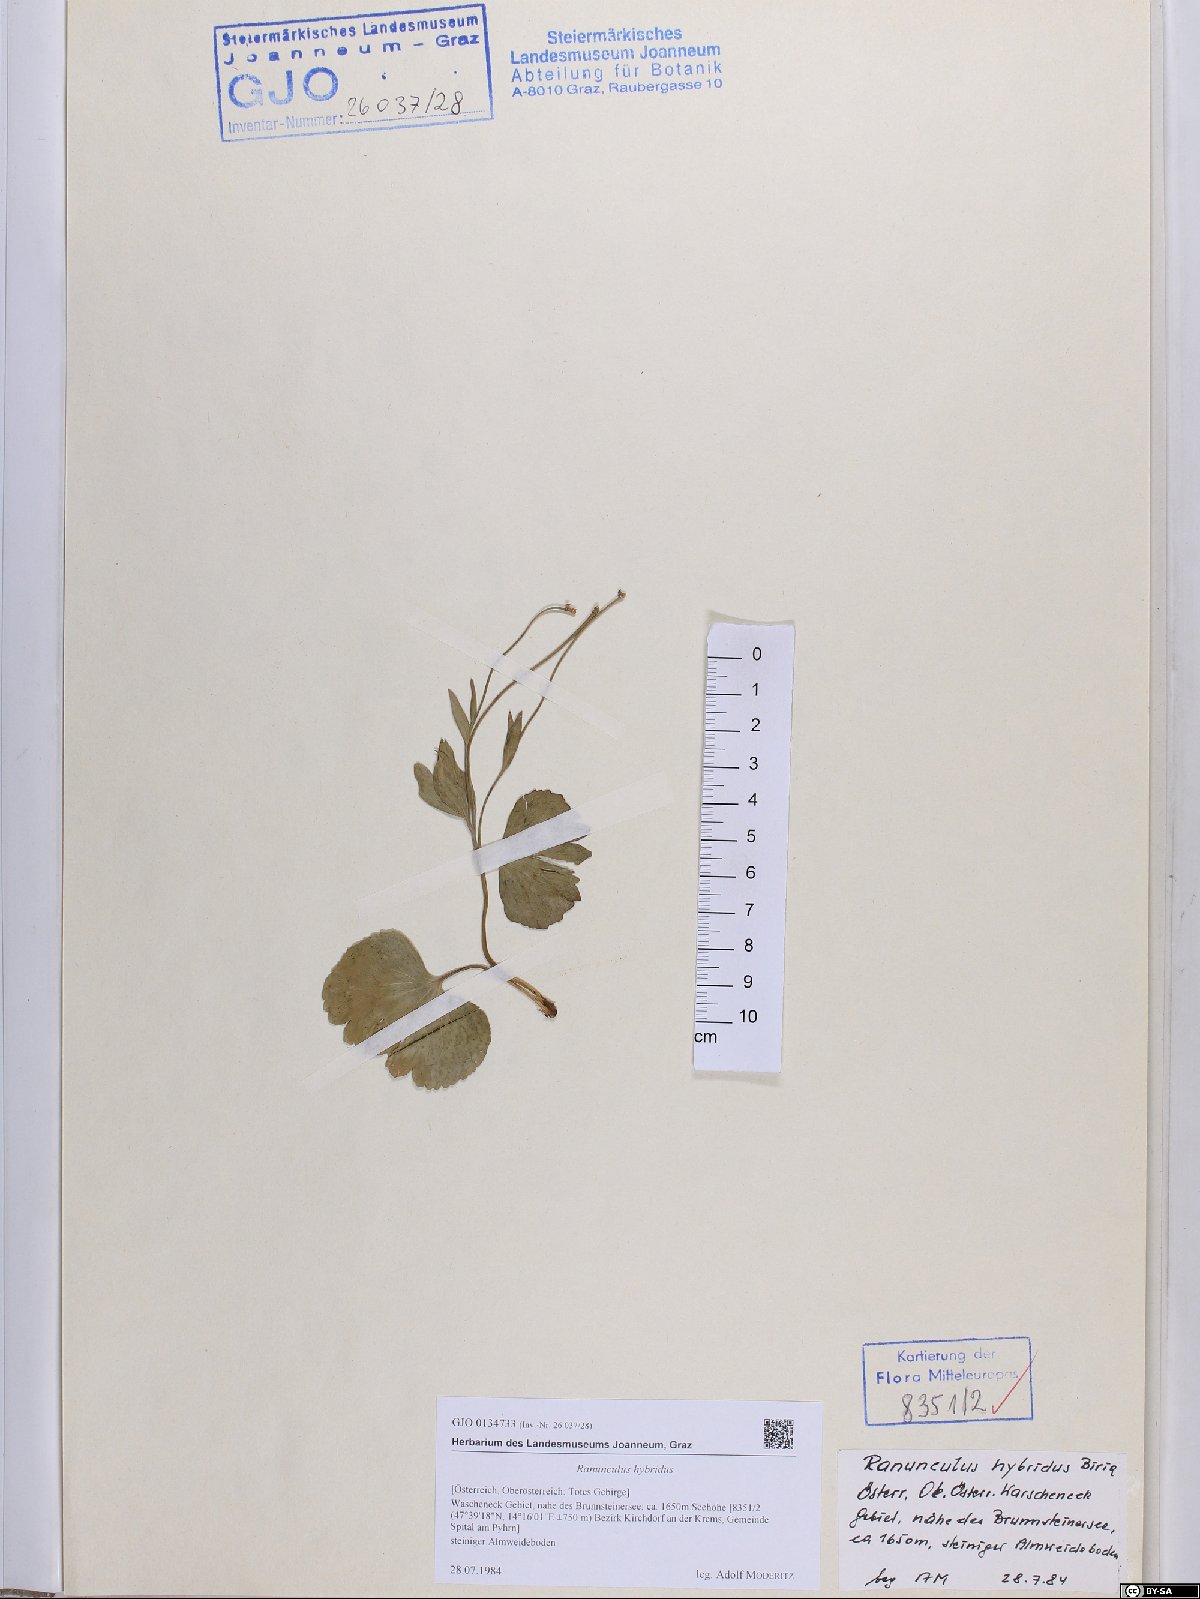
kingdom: Plantae
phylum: Tracheophyta
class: Magnoliopsida
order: Ranunculales
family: Ranunculaceae
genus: Ranunculus
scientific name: Ranunculus hybridus
